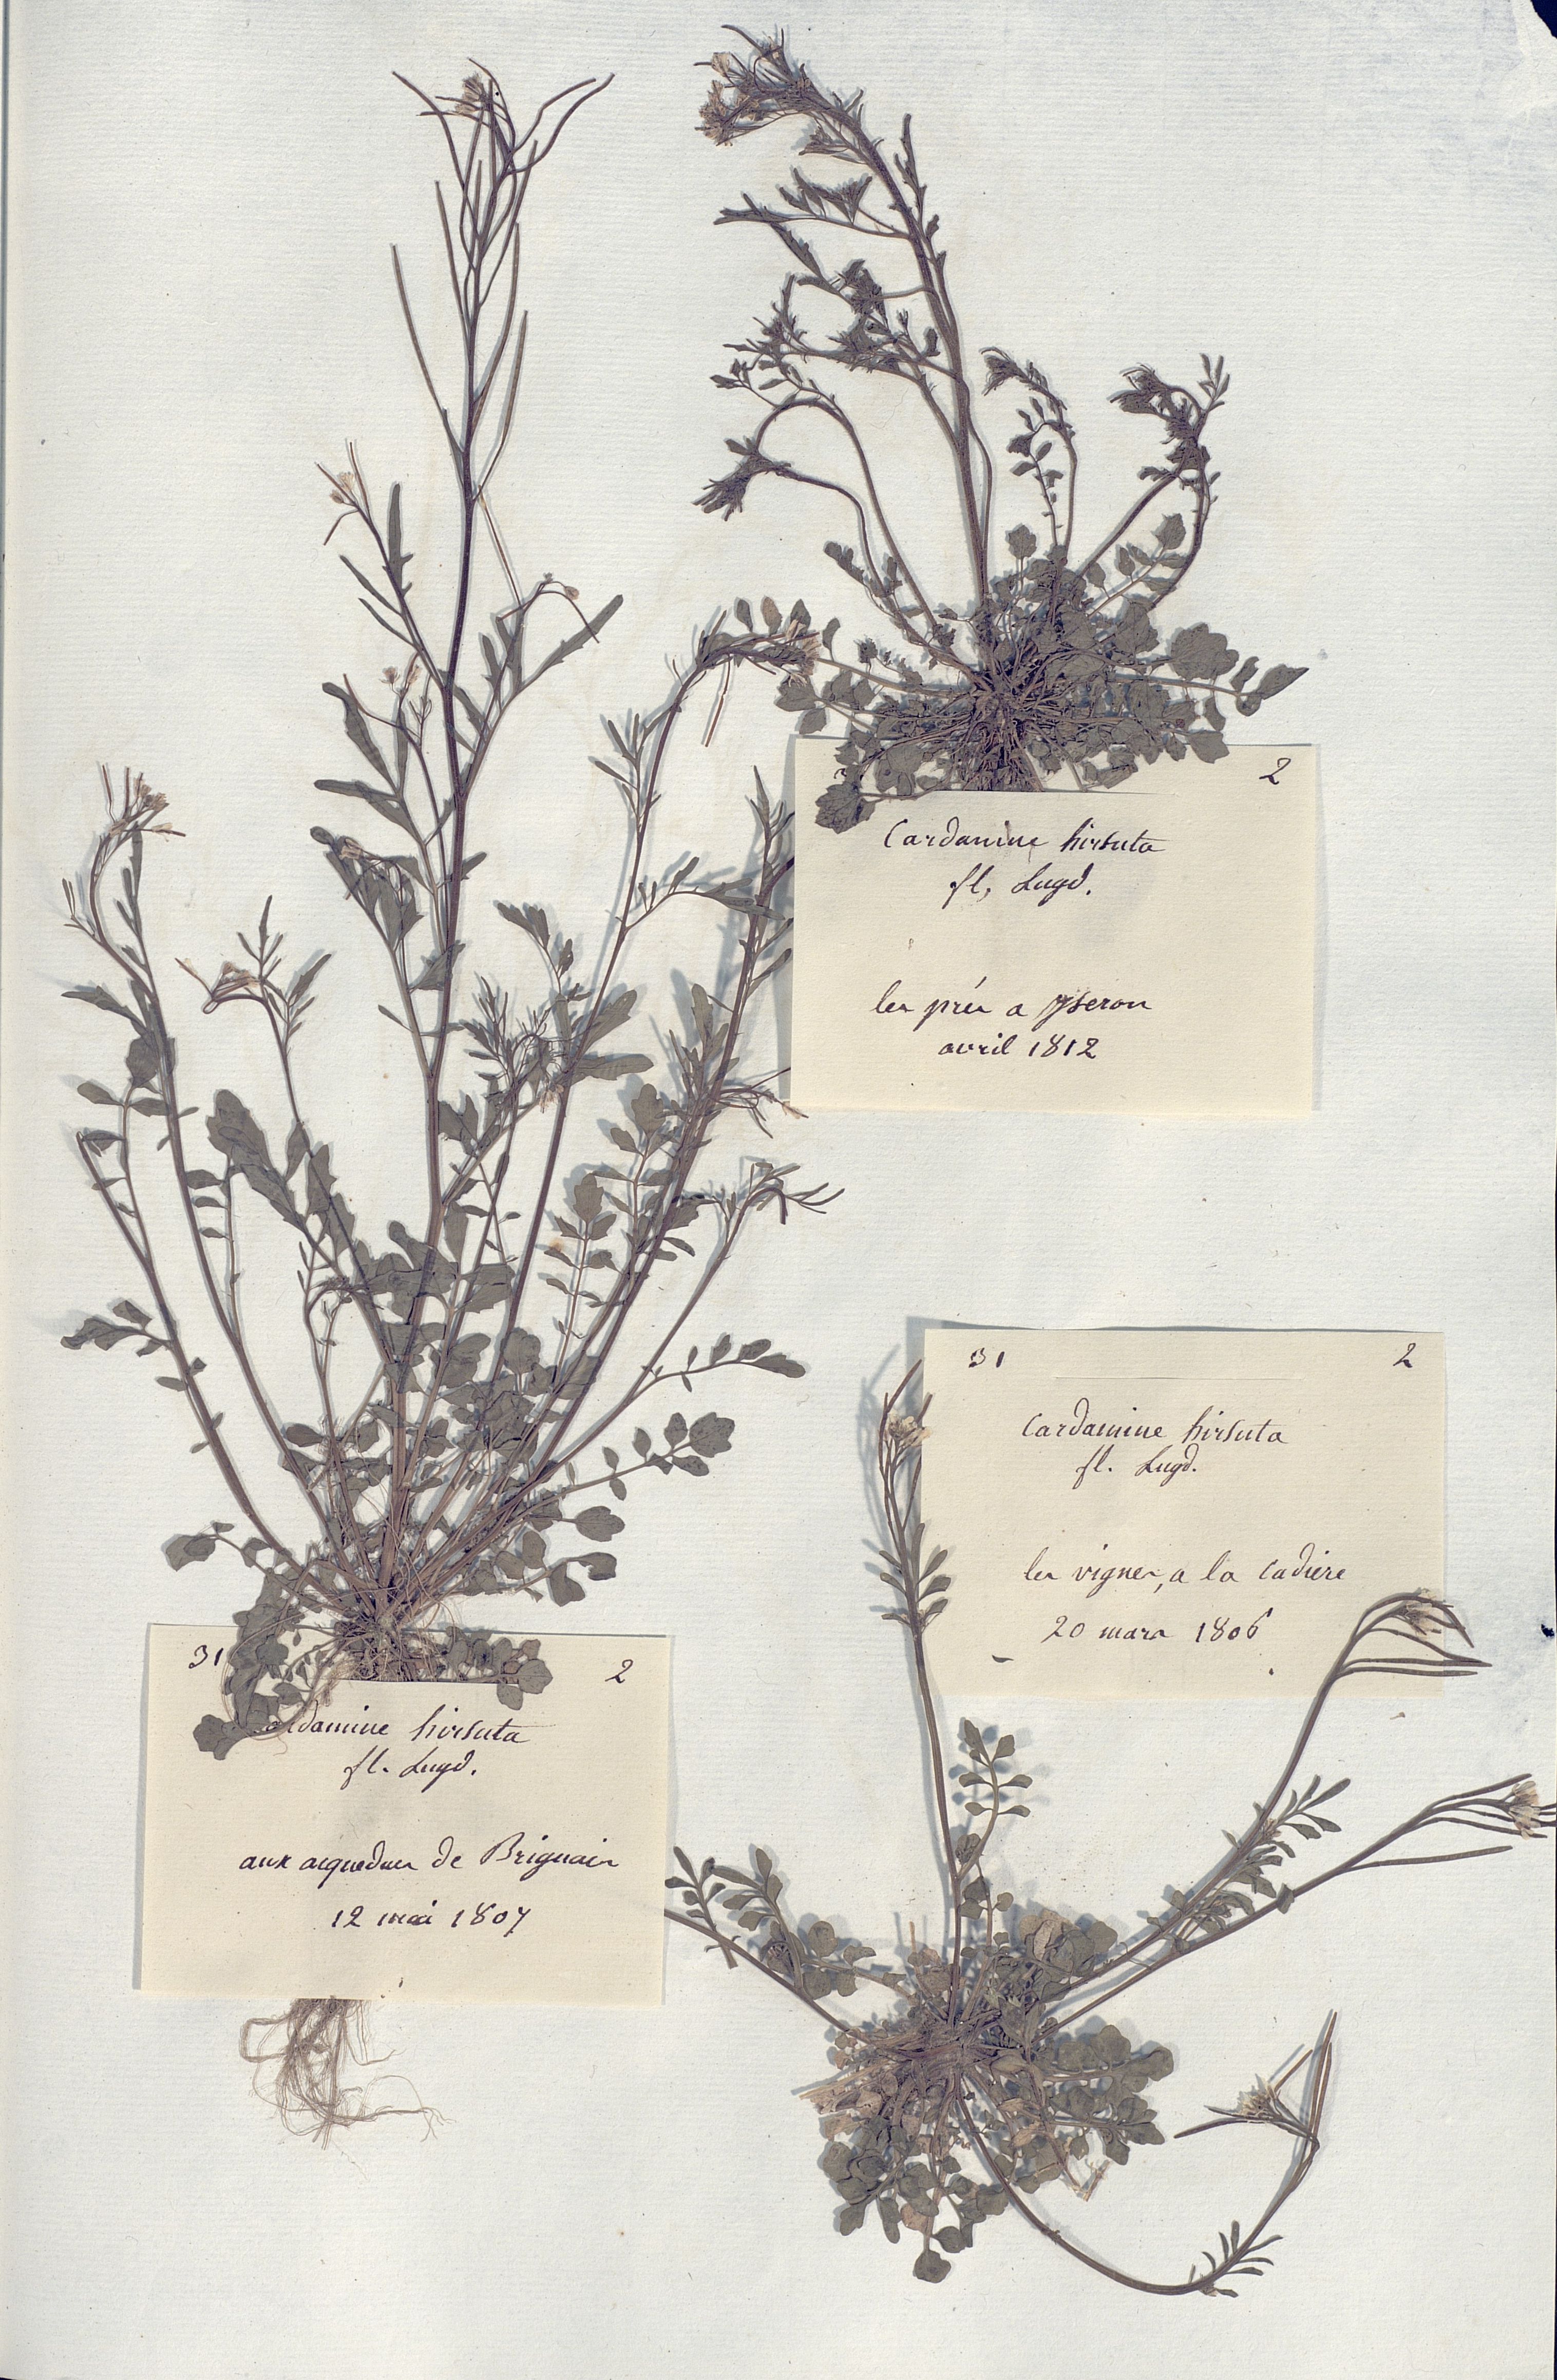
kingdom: Plantae
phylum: Tracheophyta
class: Magnoliopsida
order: Brassicales
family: Brassicaceae
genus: Cardamine
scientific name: Cardamine hirsuta
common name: Hairy bittercress
